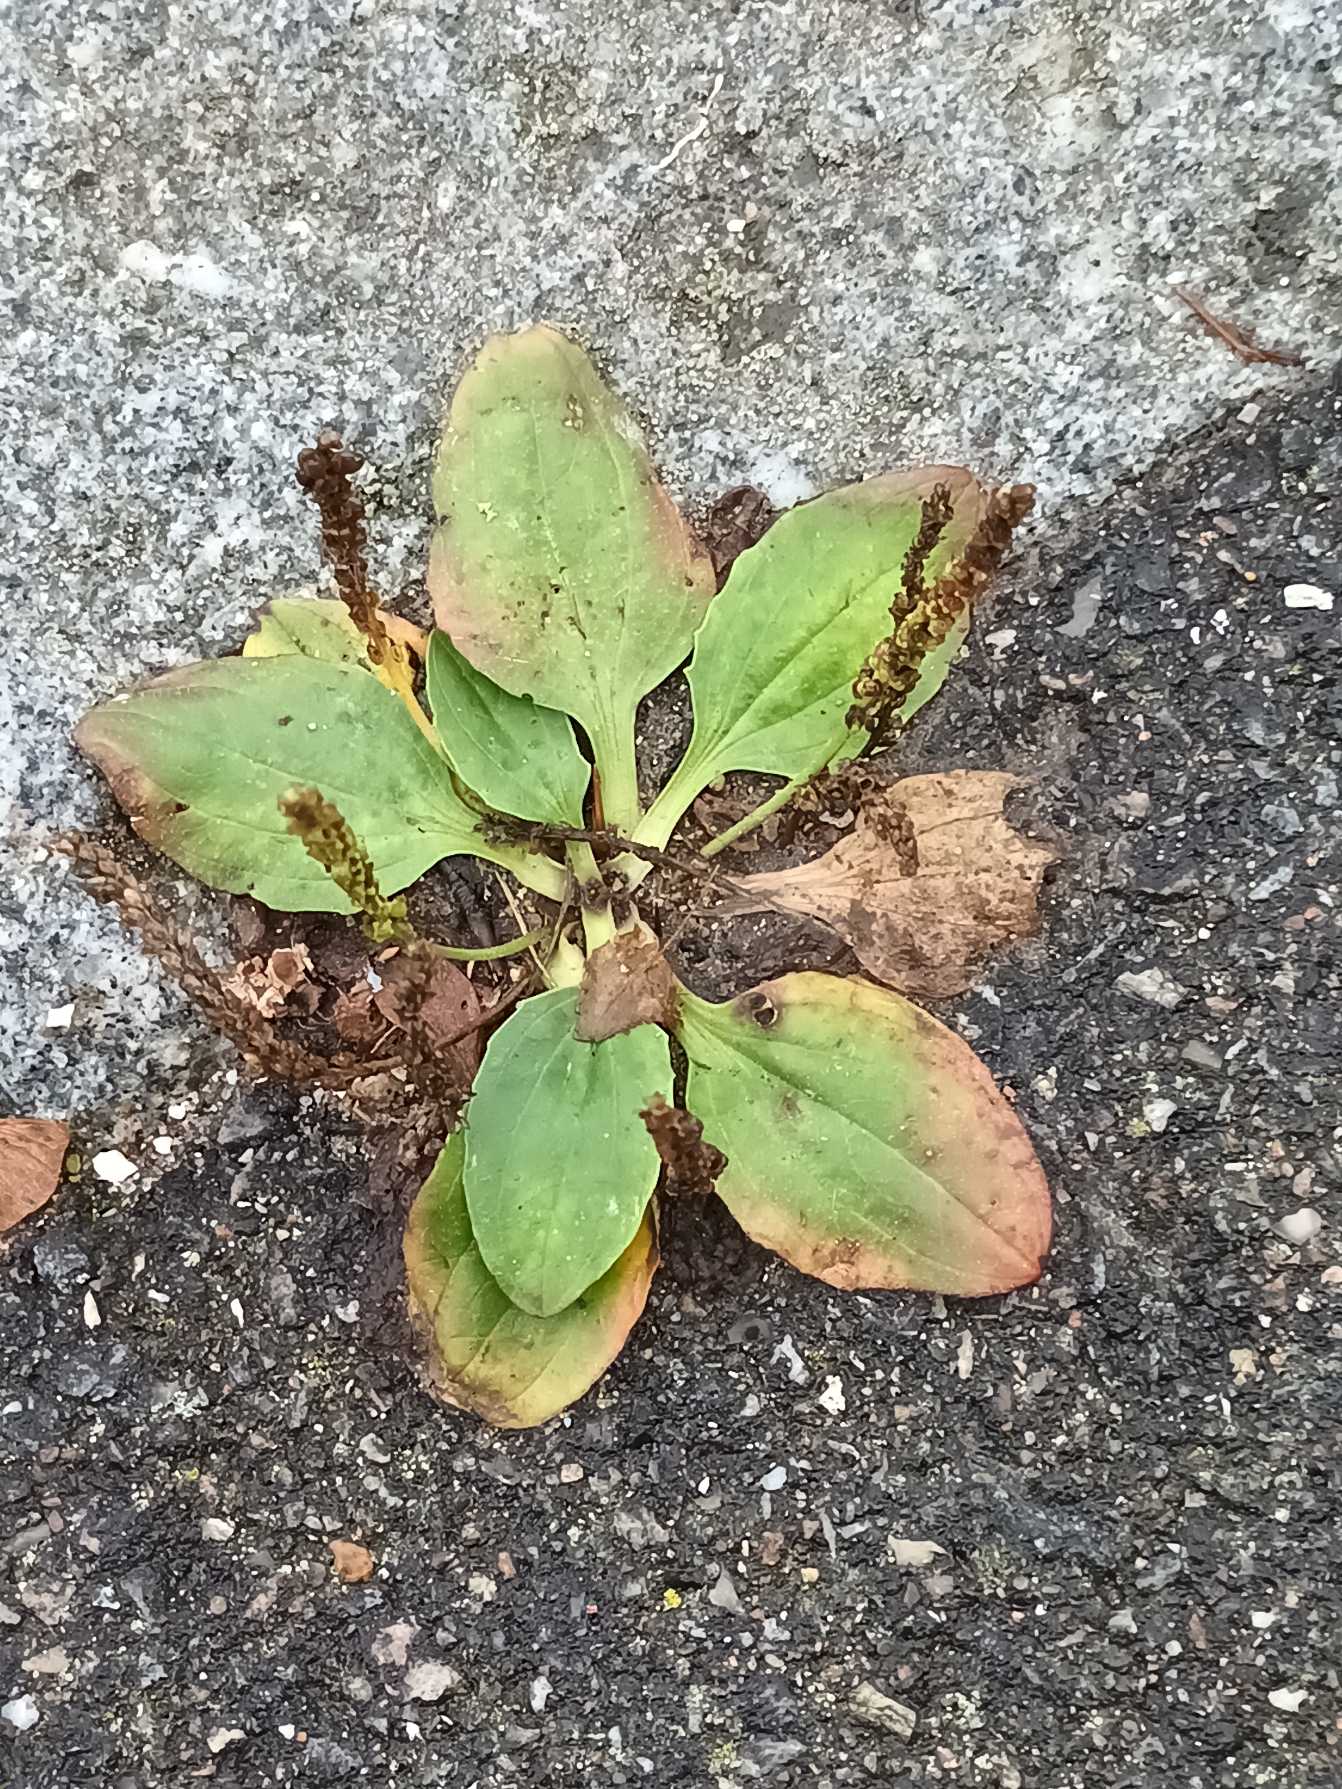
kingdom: Plantae
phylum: Tracheophyta
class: Magnoliopsida
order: Lamiales
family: Plantaginaceae
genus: Plantago
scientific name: Plantago major
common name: Glat vejbred
